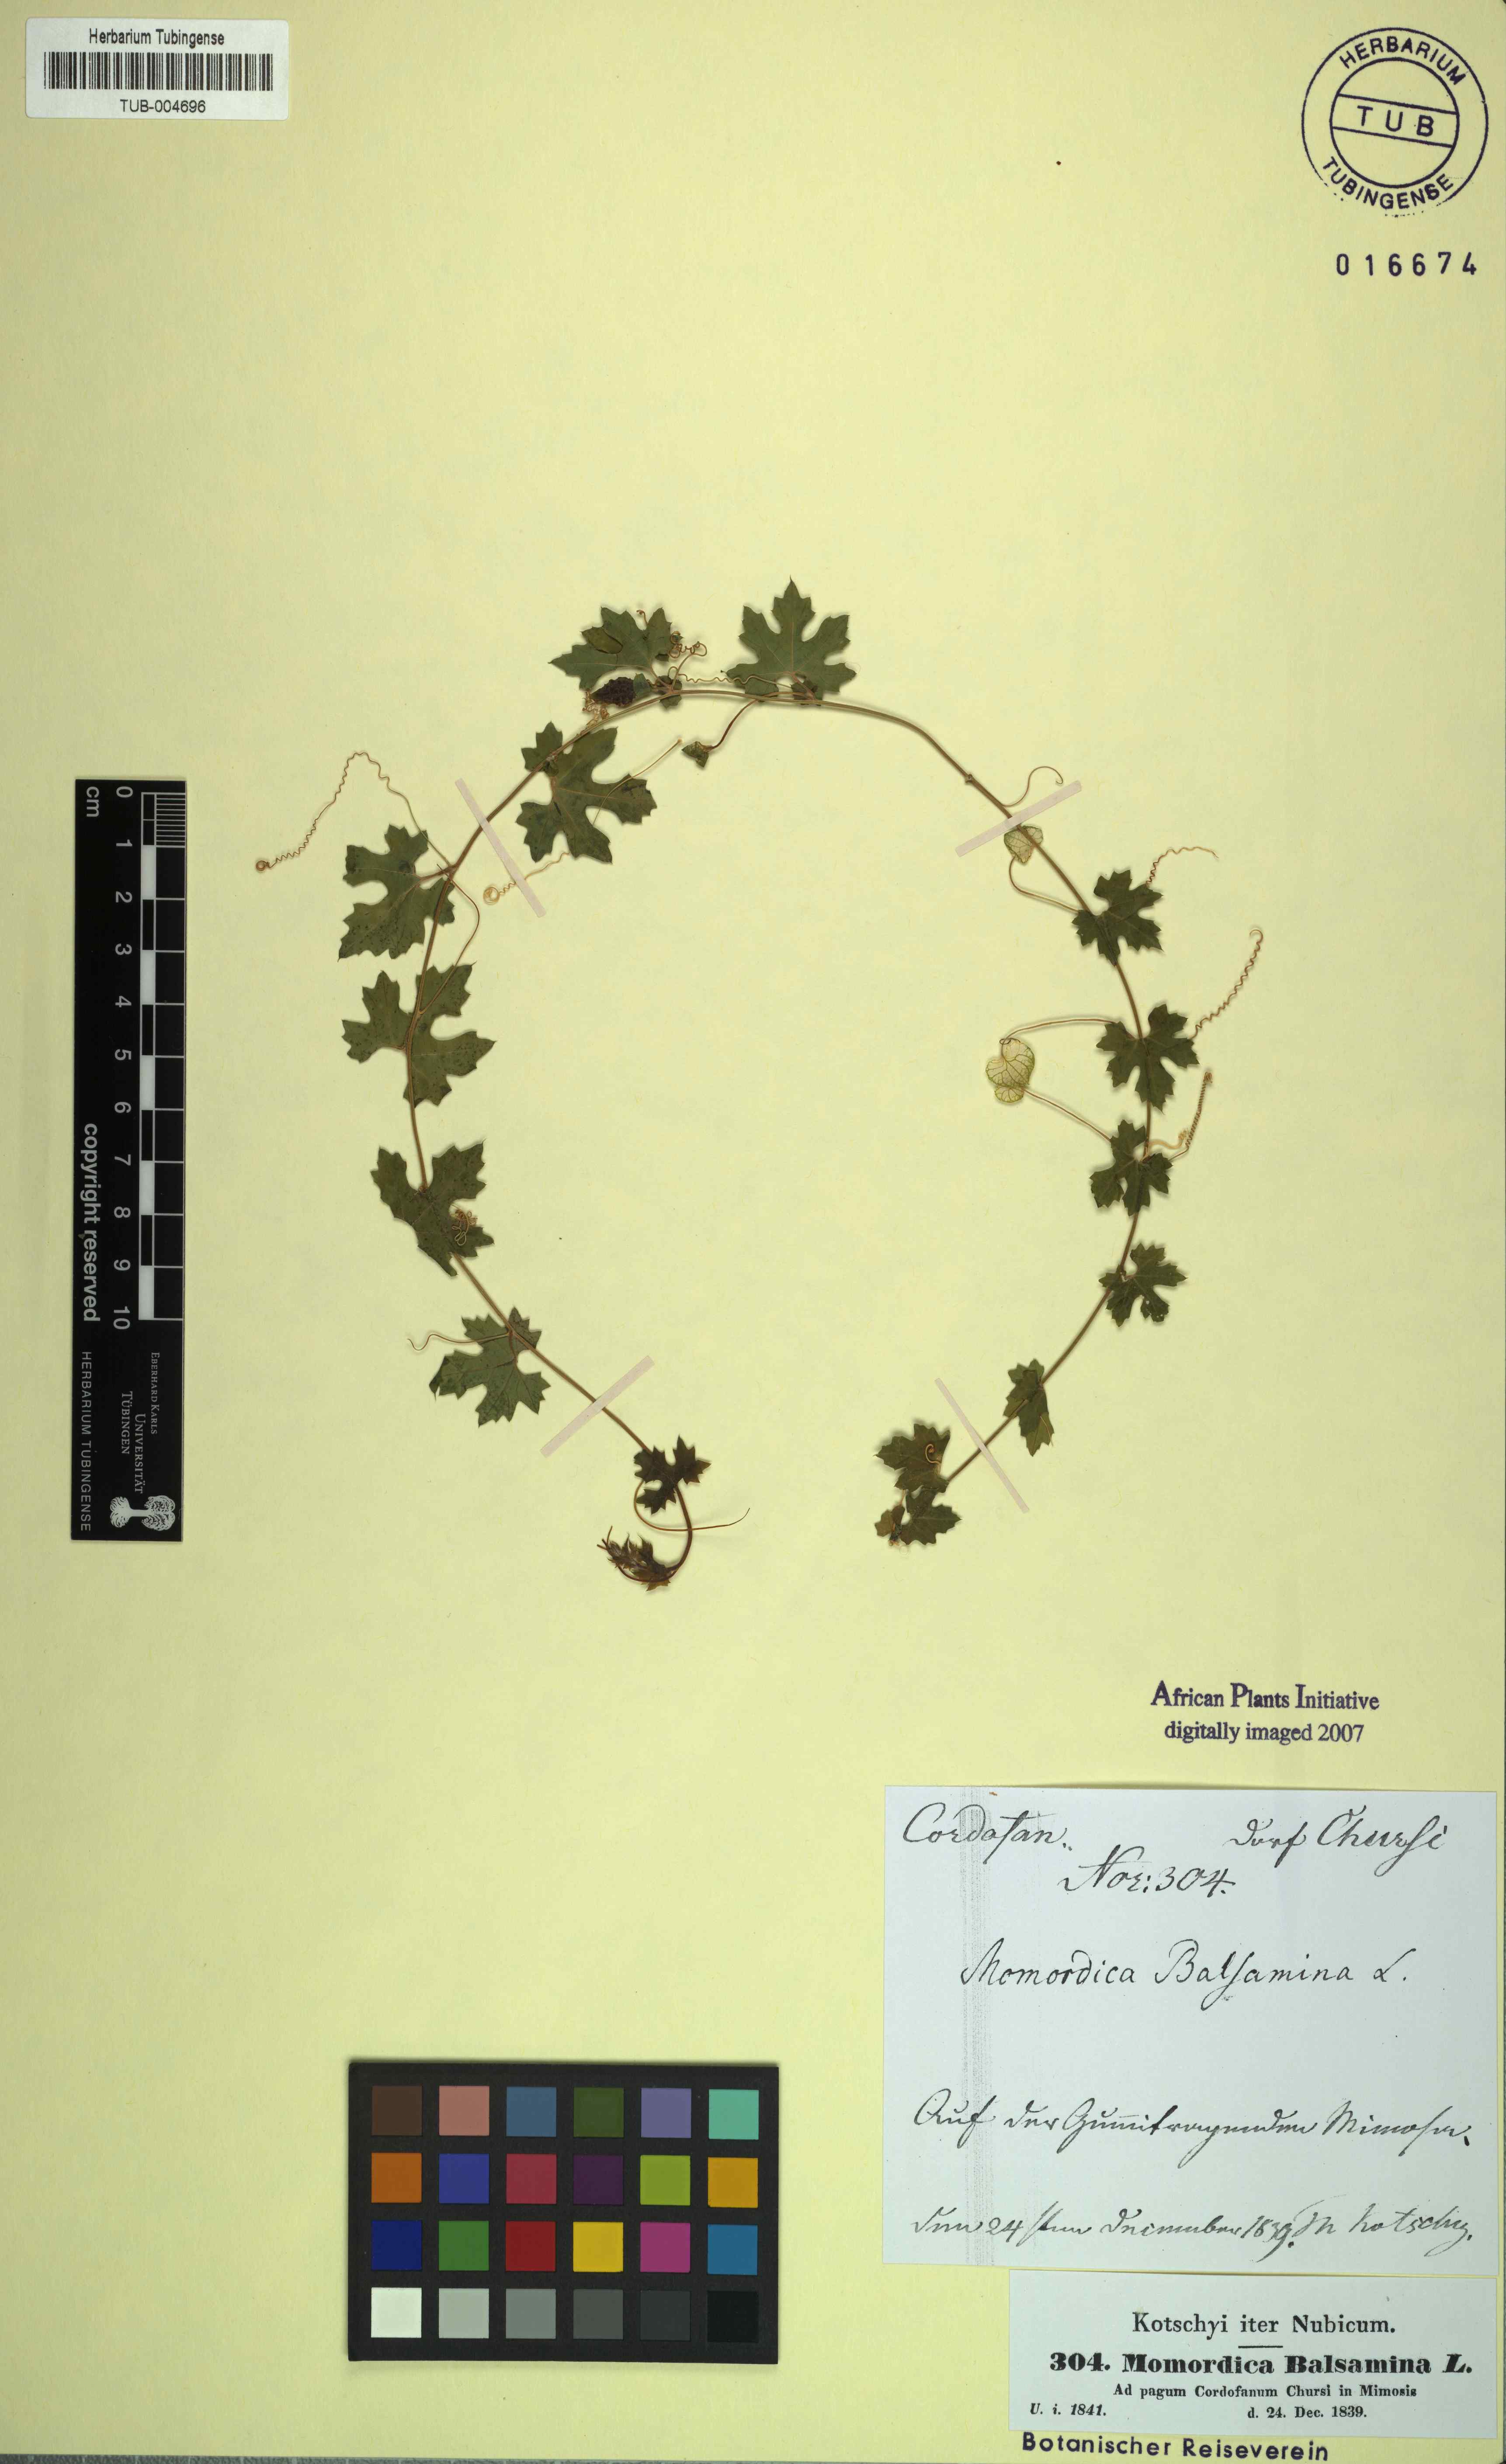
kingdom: Plantae
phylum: Tracheophyta
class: Magnoliopsida
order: Cucurbitales
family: Cucurbitaceae
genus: Momordica
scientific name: Momordica balsamina
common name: Southern balsampear
